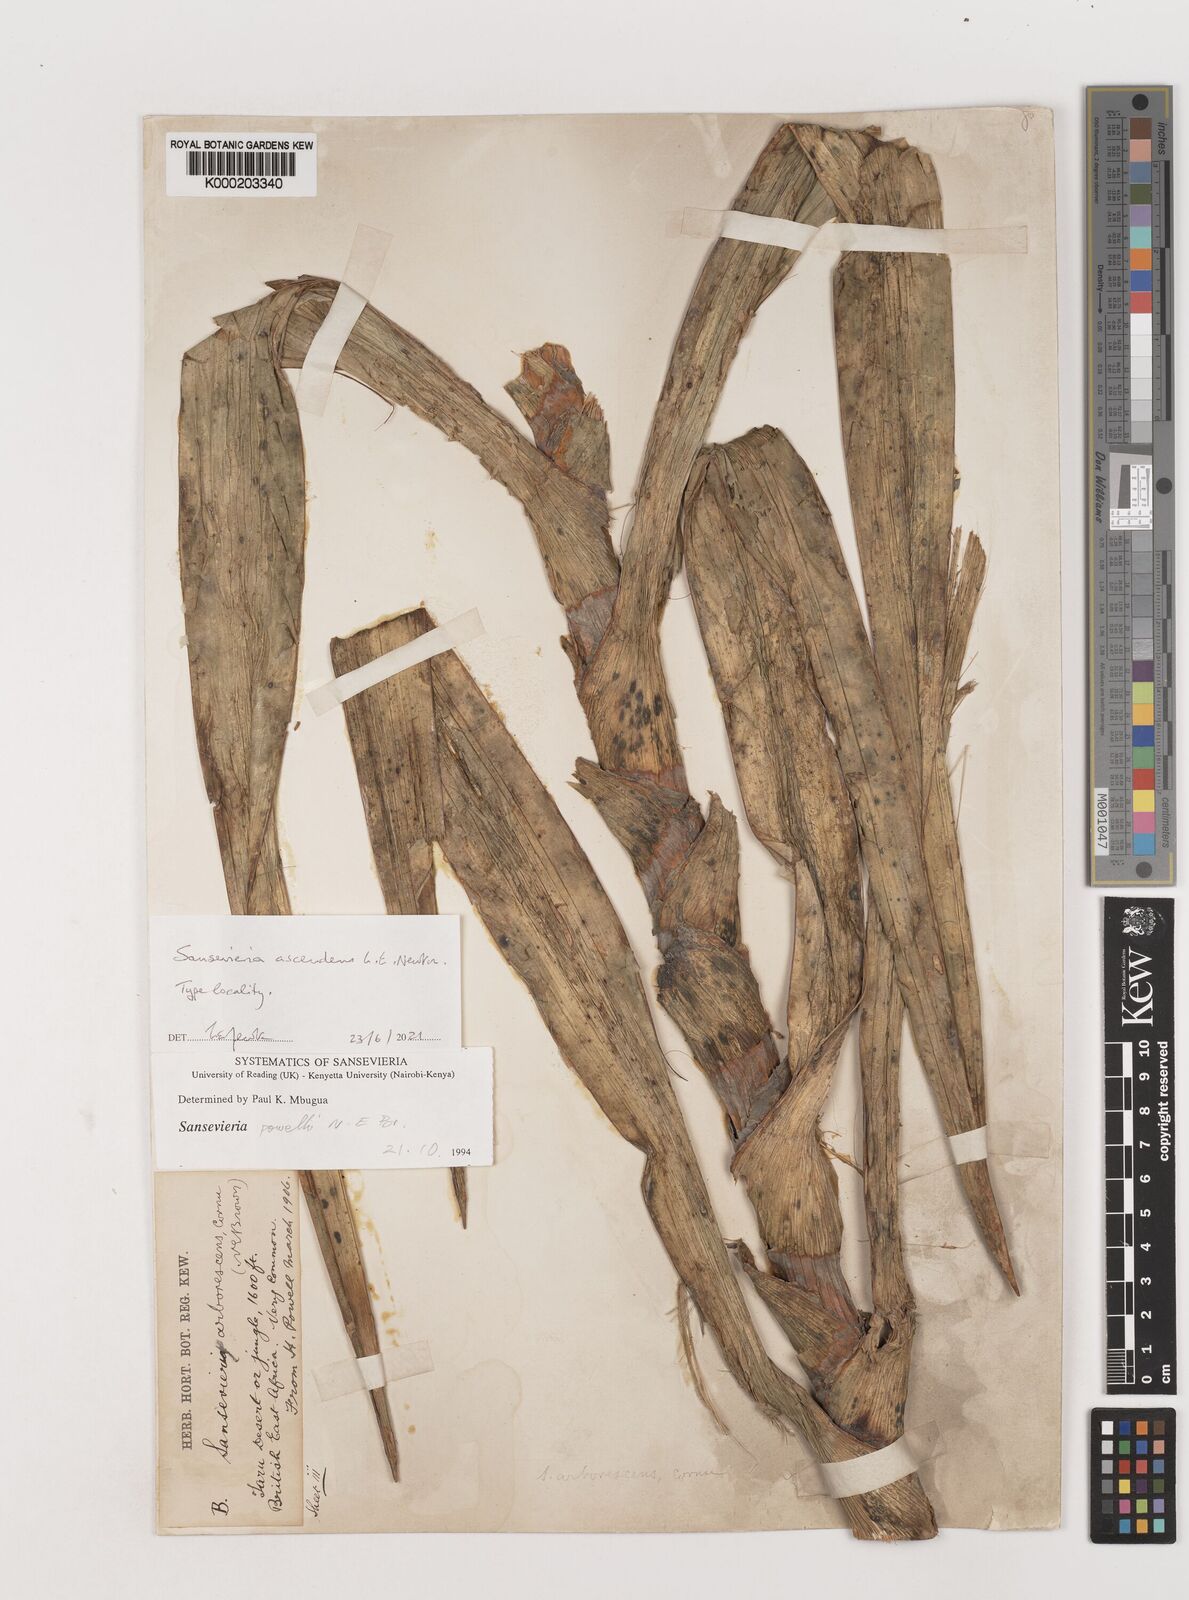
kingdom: Plantae
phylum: Tracheophyta
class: Liliopsida
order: Asparagales
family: Asparagaceae
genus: Dracaena
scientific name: Dracaena
